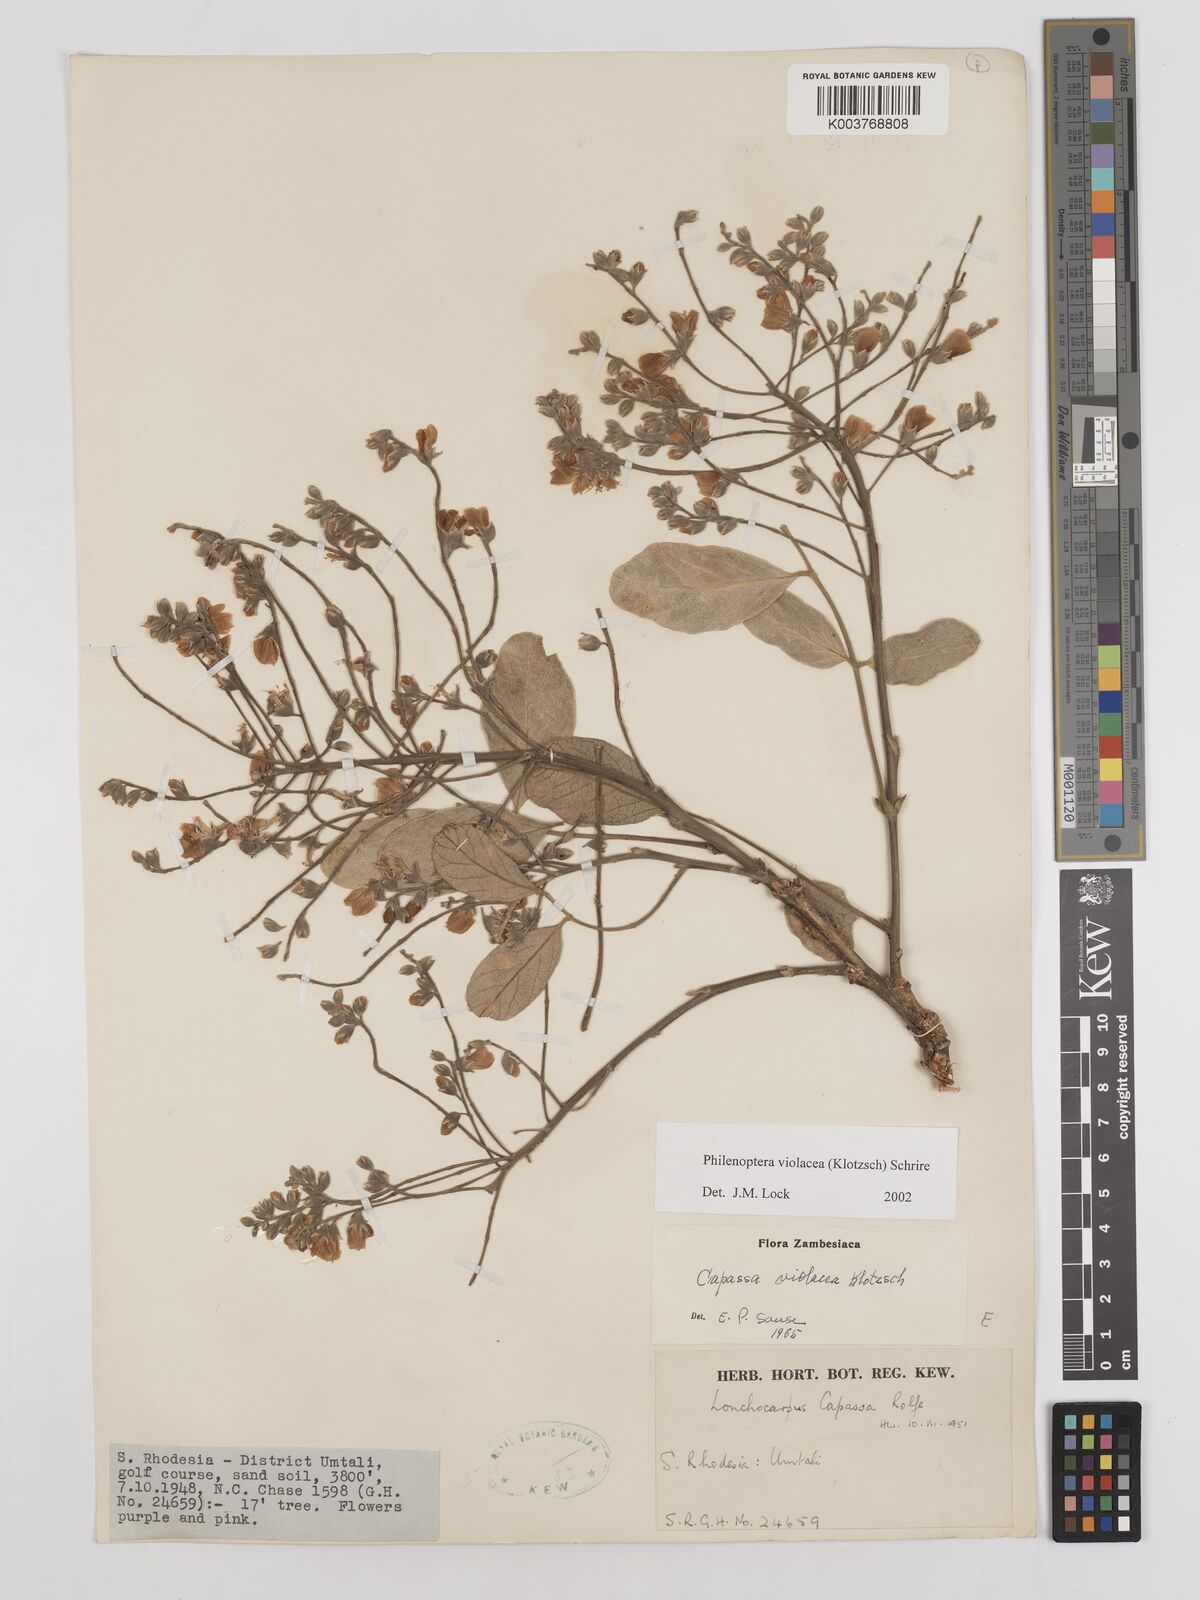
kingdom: Plantae
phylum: Tracheophyta
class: Magnoliopsida
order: Fabales
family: Fabaceae
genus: Philenoptera
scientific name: Philenoptera violacea
